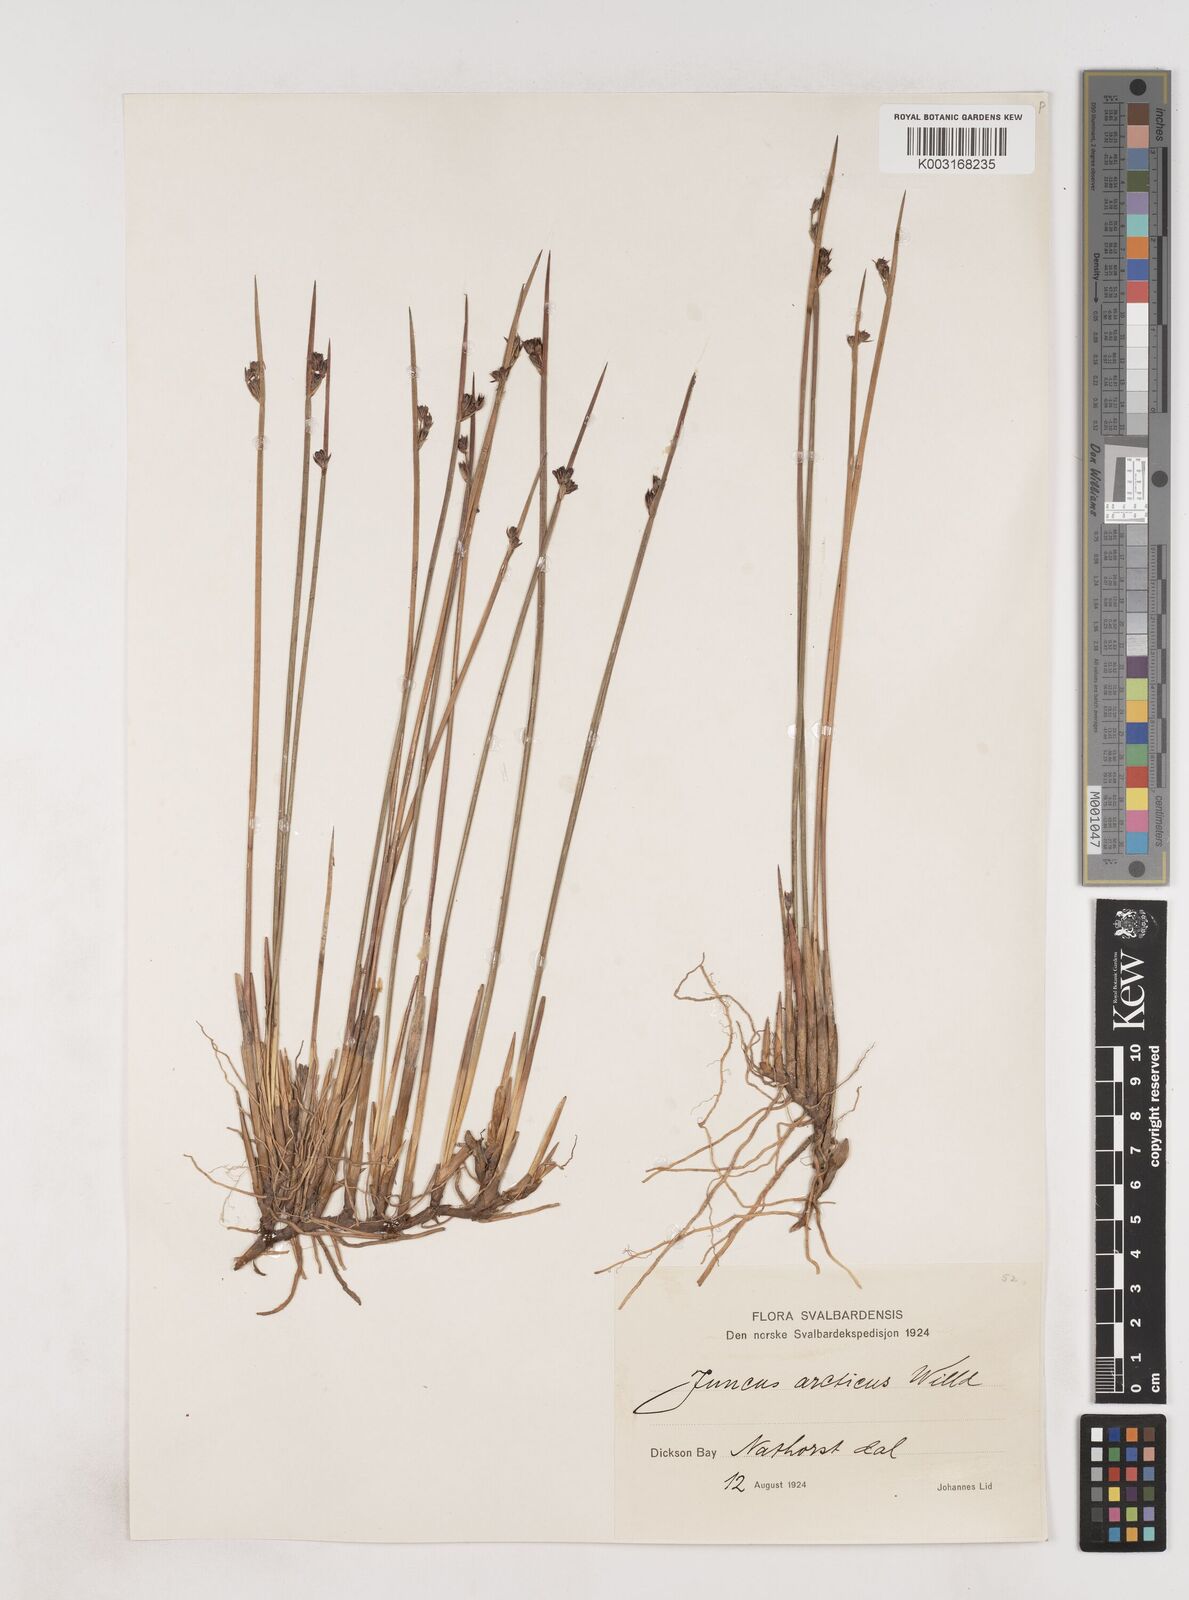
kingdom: Plantae
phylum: Tracheophyta
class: Liliopsida
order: Poales
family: Juncaceae
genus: Juncus
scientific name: Juncus arcticus
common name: Arctic rush
